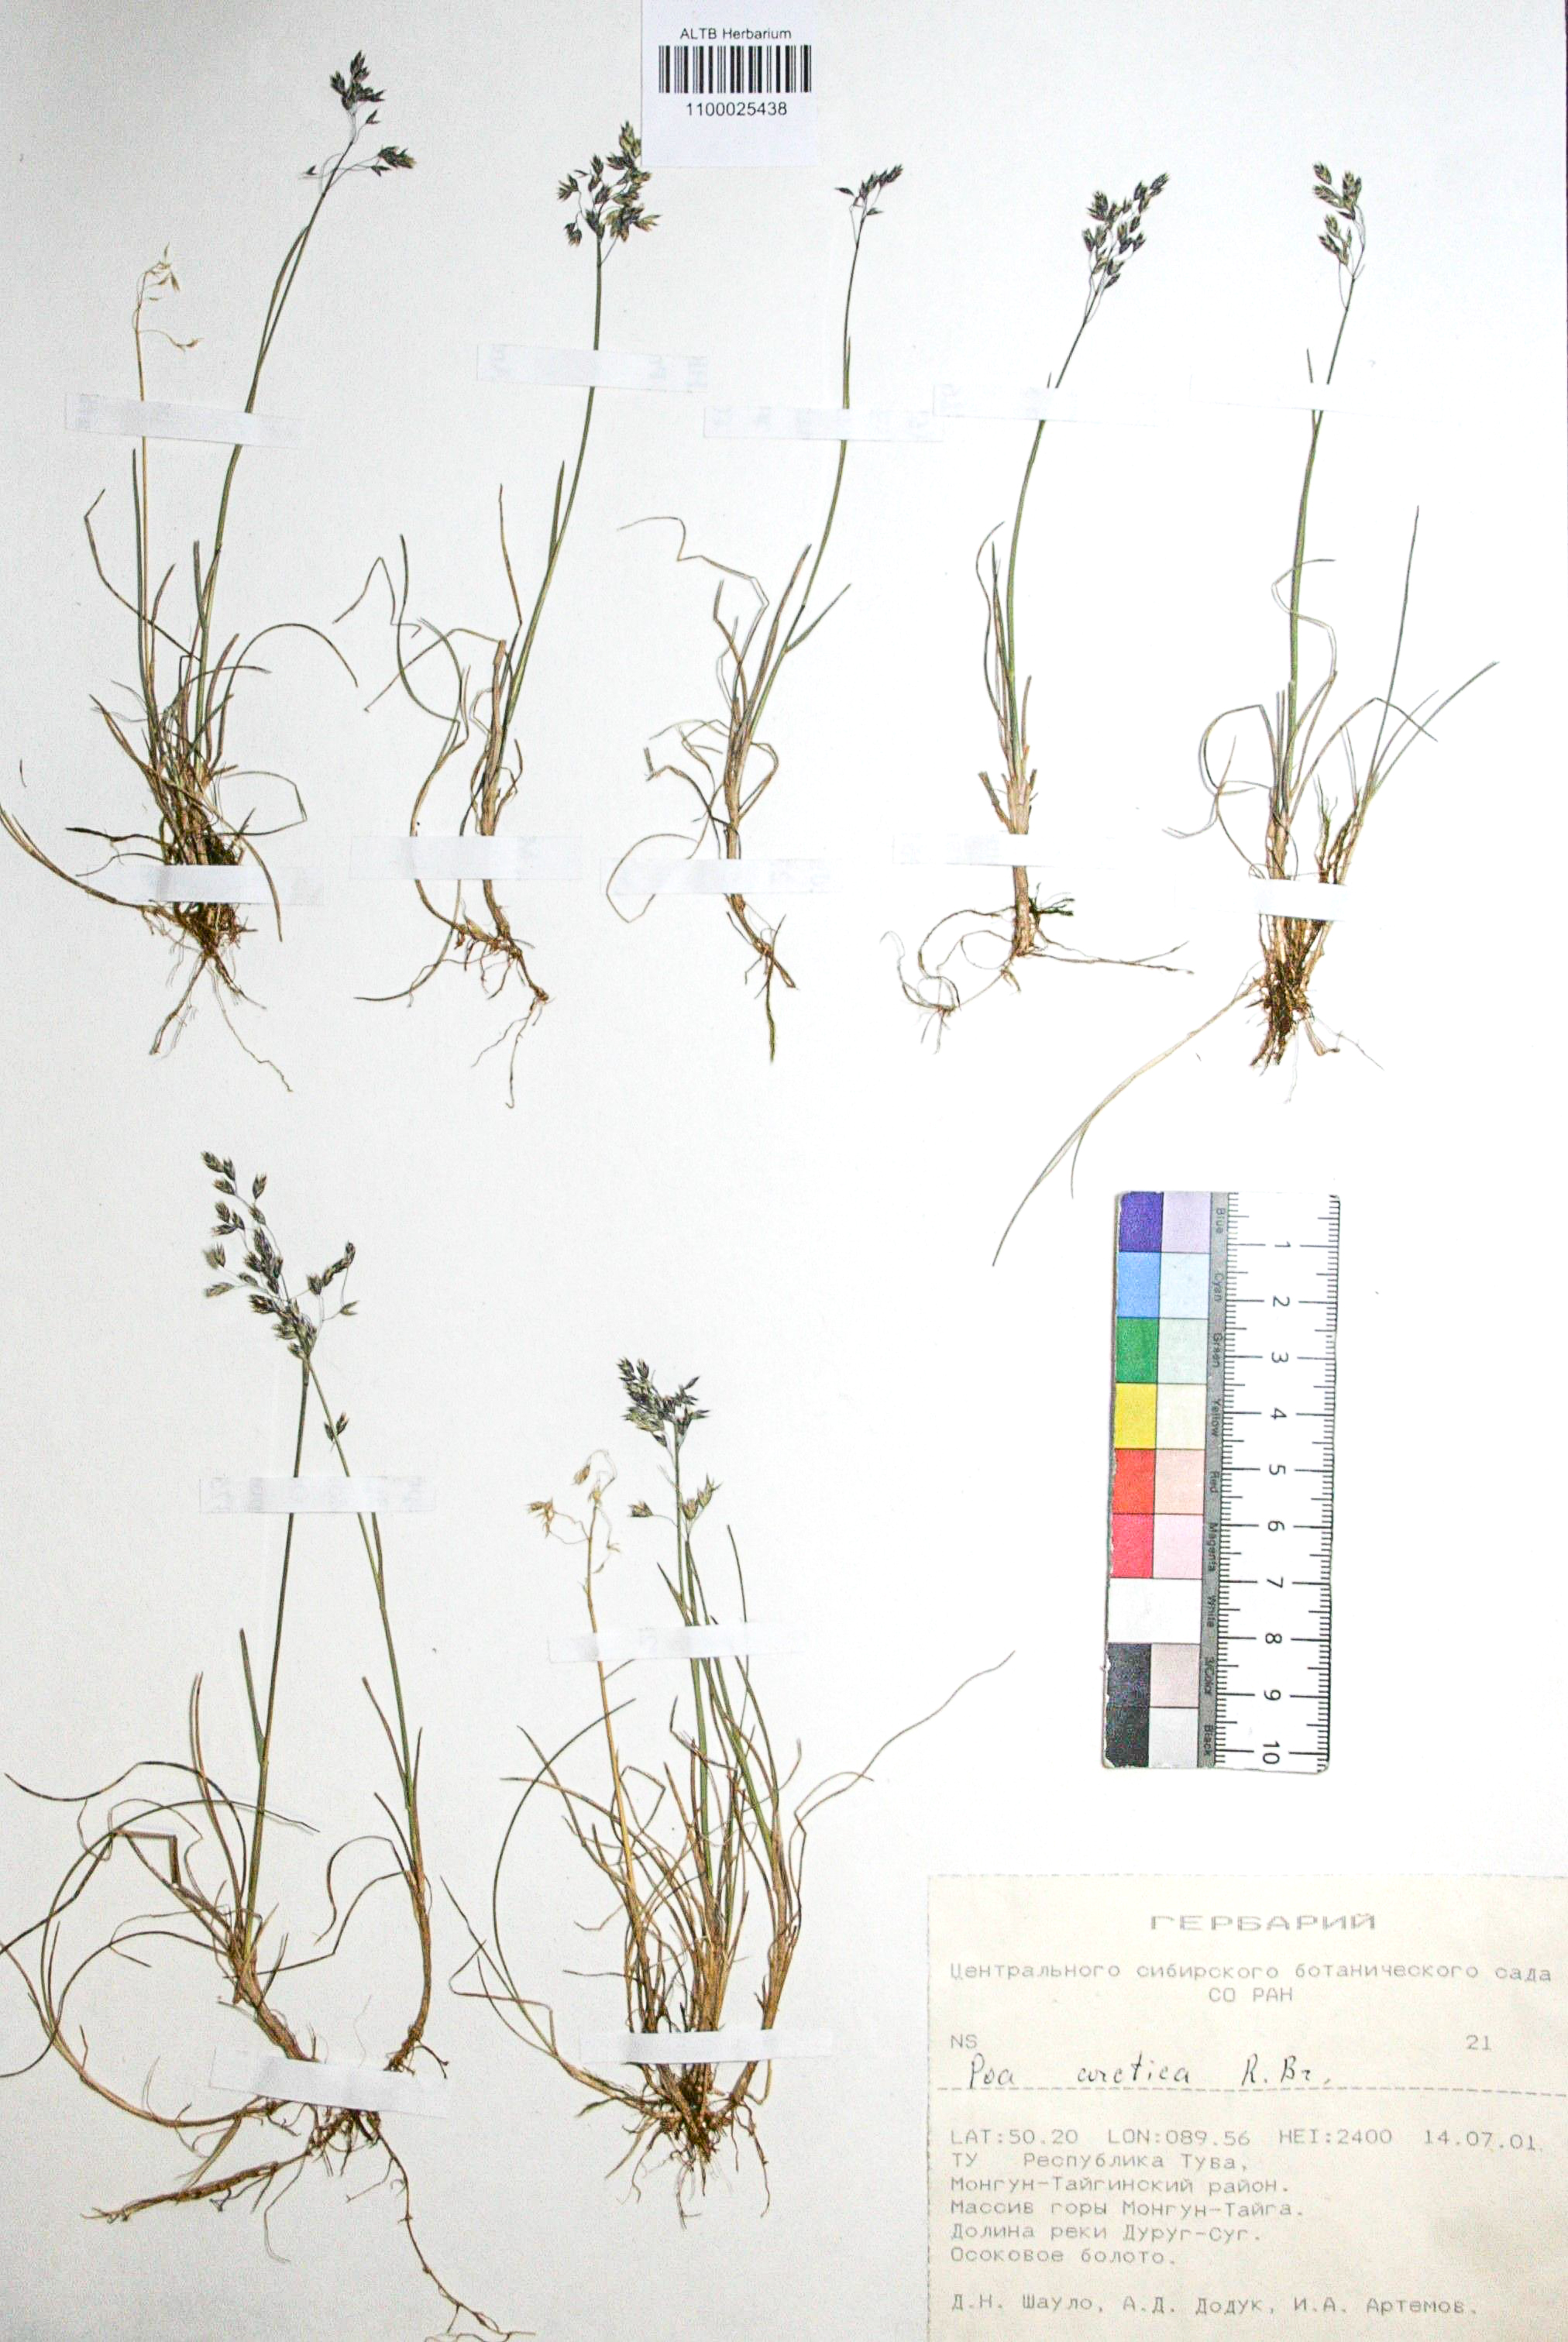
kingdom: Plantae
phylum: Tracheophyta
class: Liliopsida
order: Poales
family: Poaceae
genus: Poa
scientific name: Poa arctica
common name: Arctic bluegrass
